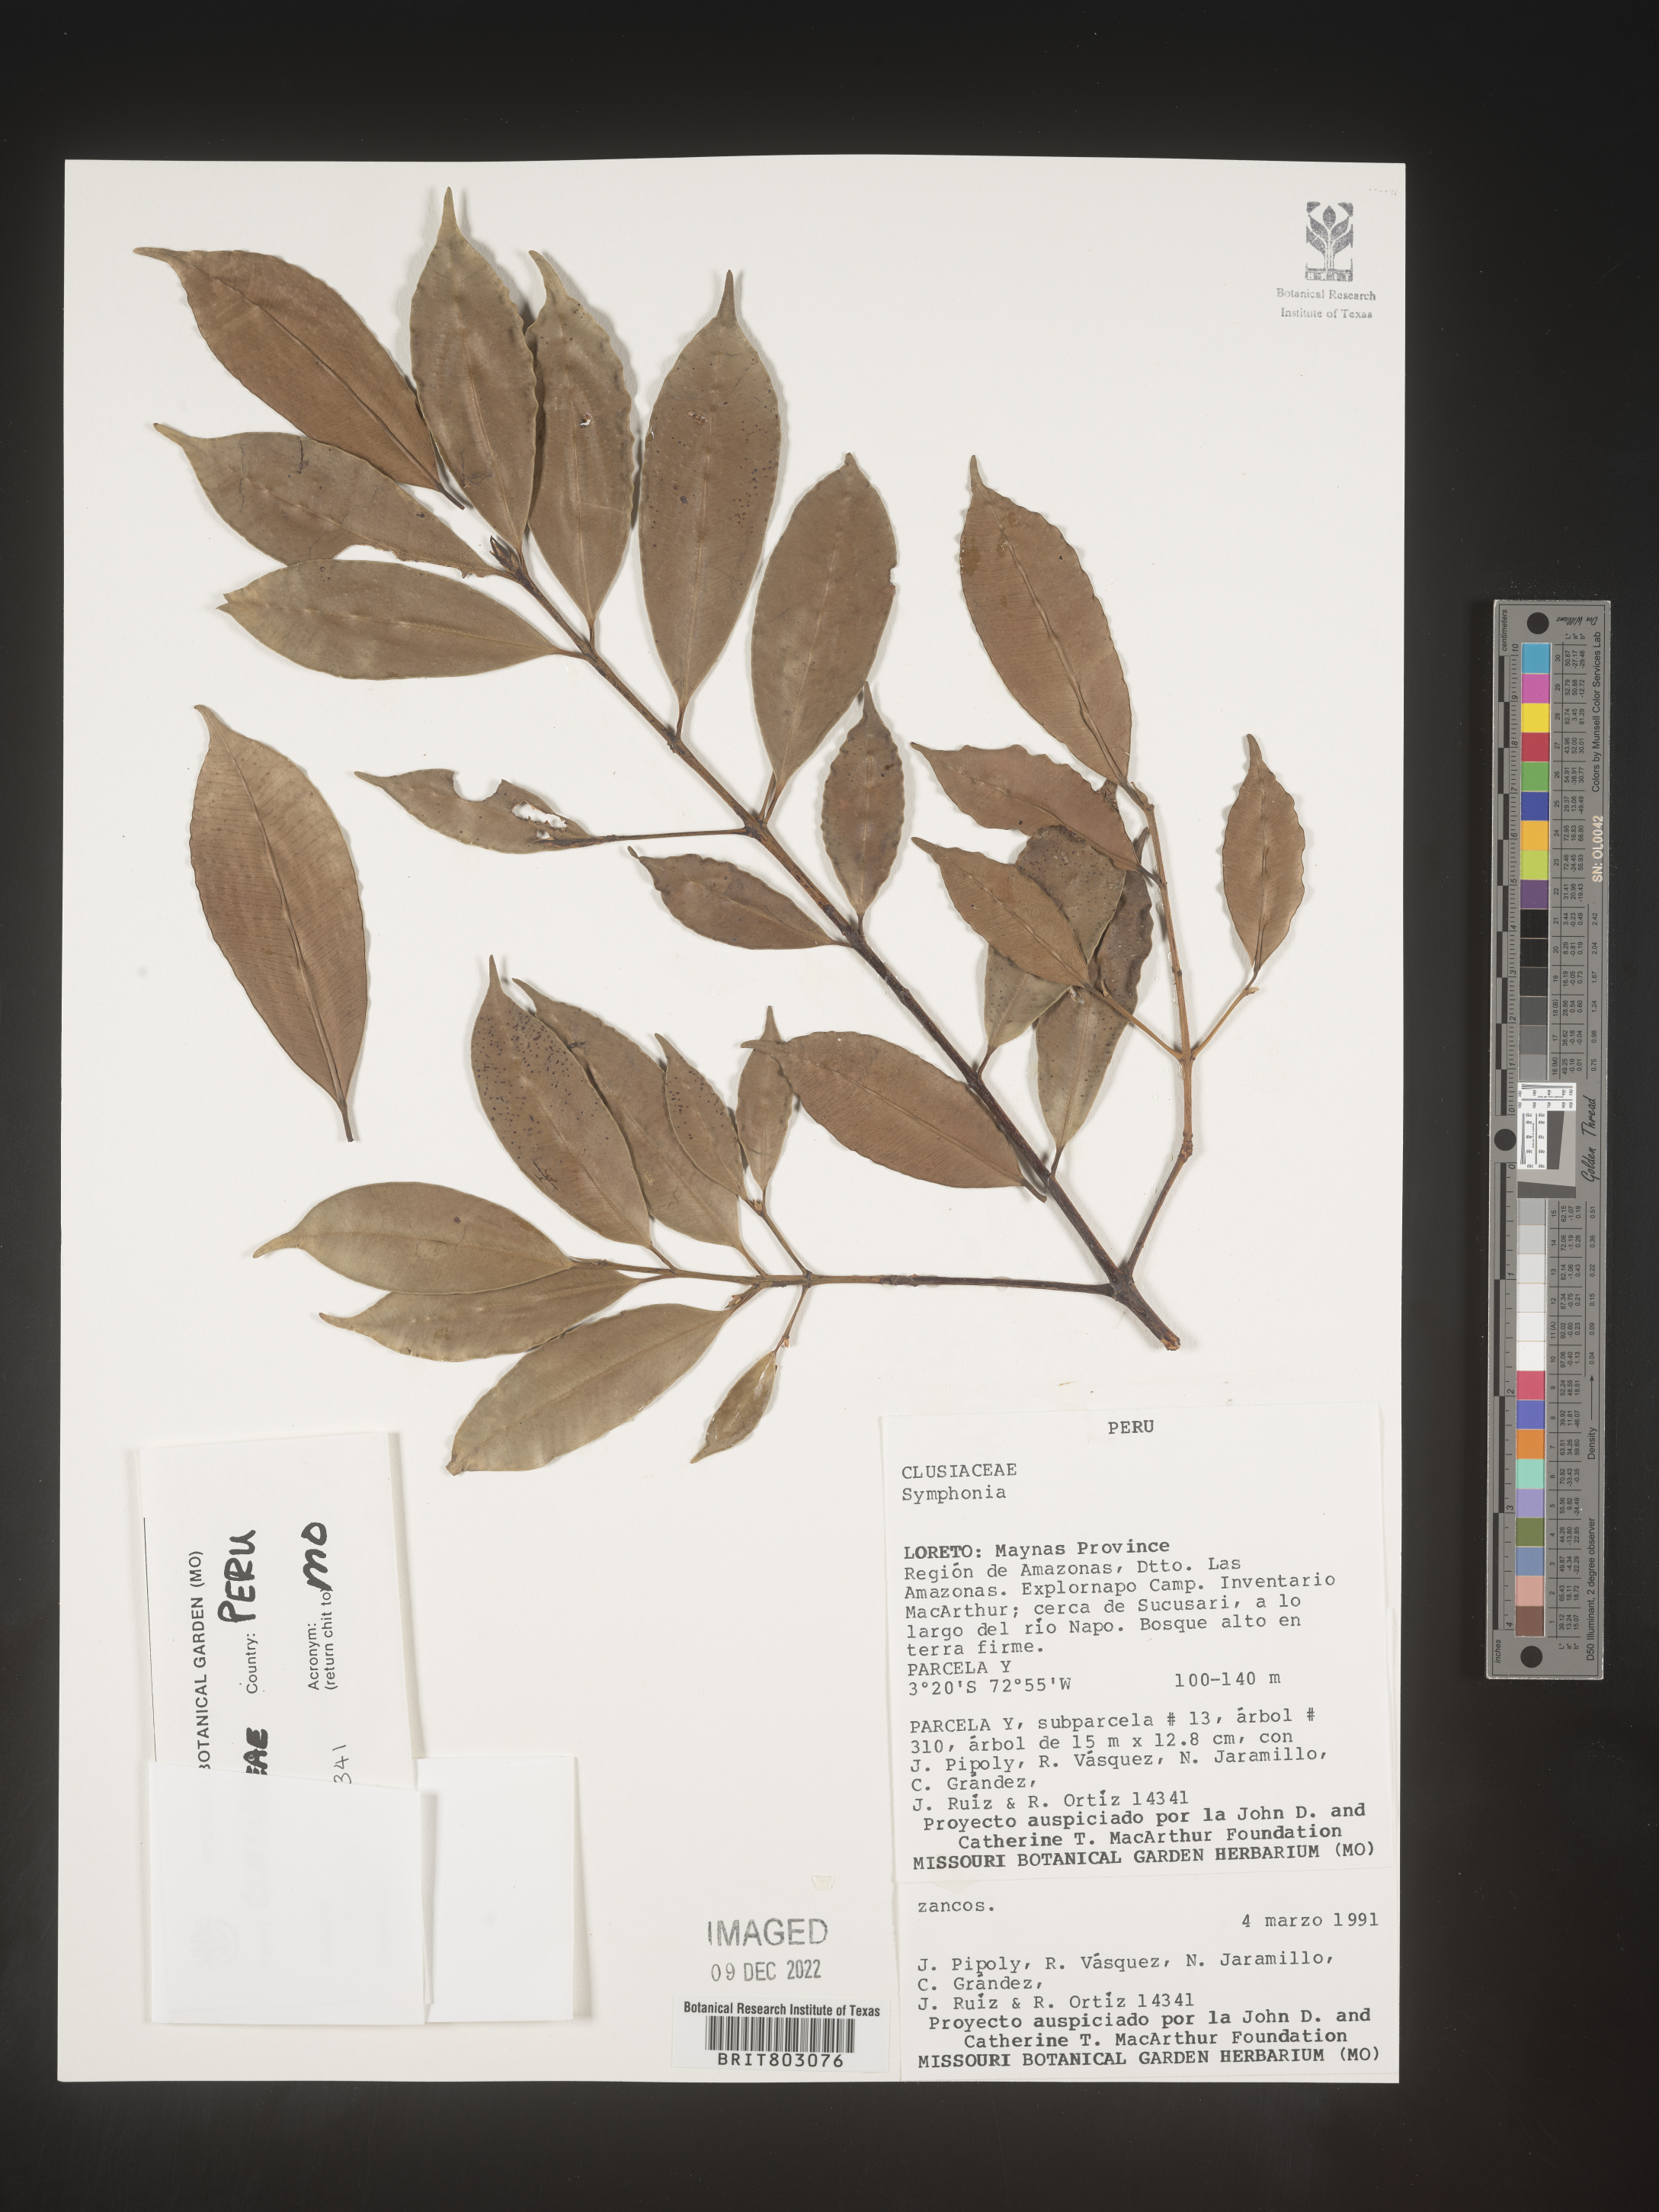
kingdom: Plantae
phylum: Tracheophyta
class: Magnoliopsida
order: Malpighiales
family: Clusiaceae
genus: Symphonia
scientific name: Symphonia
